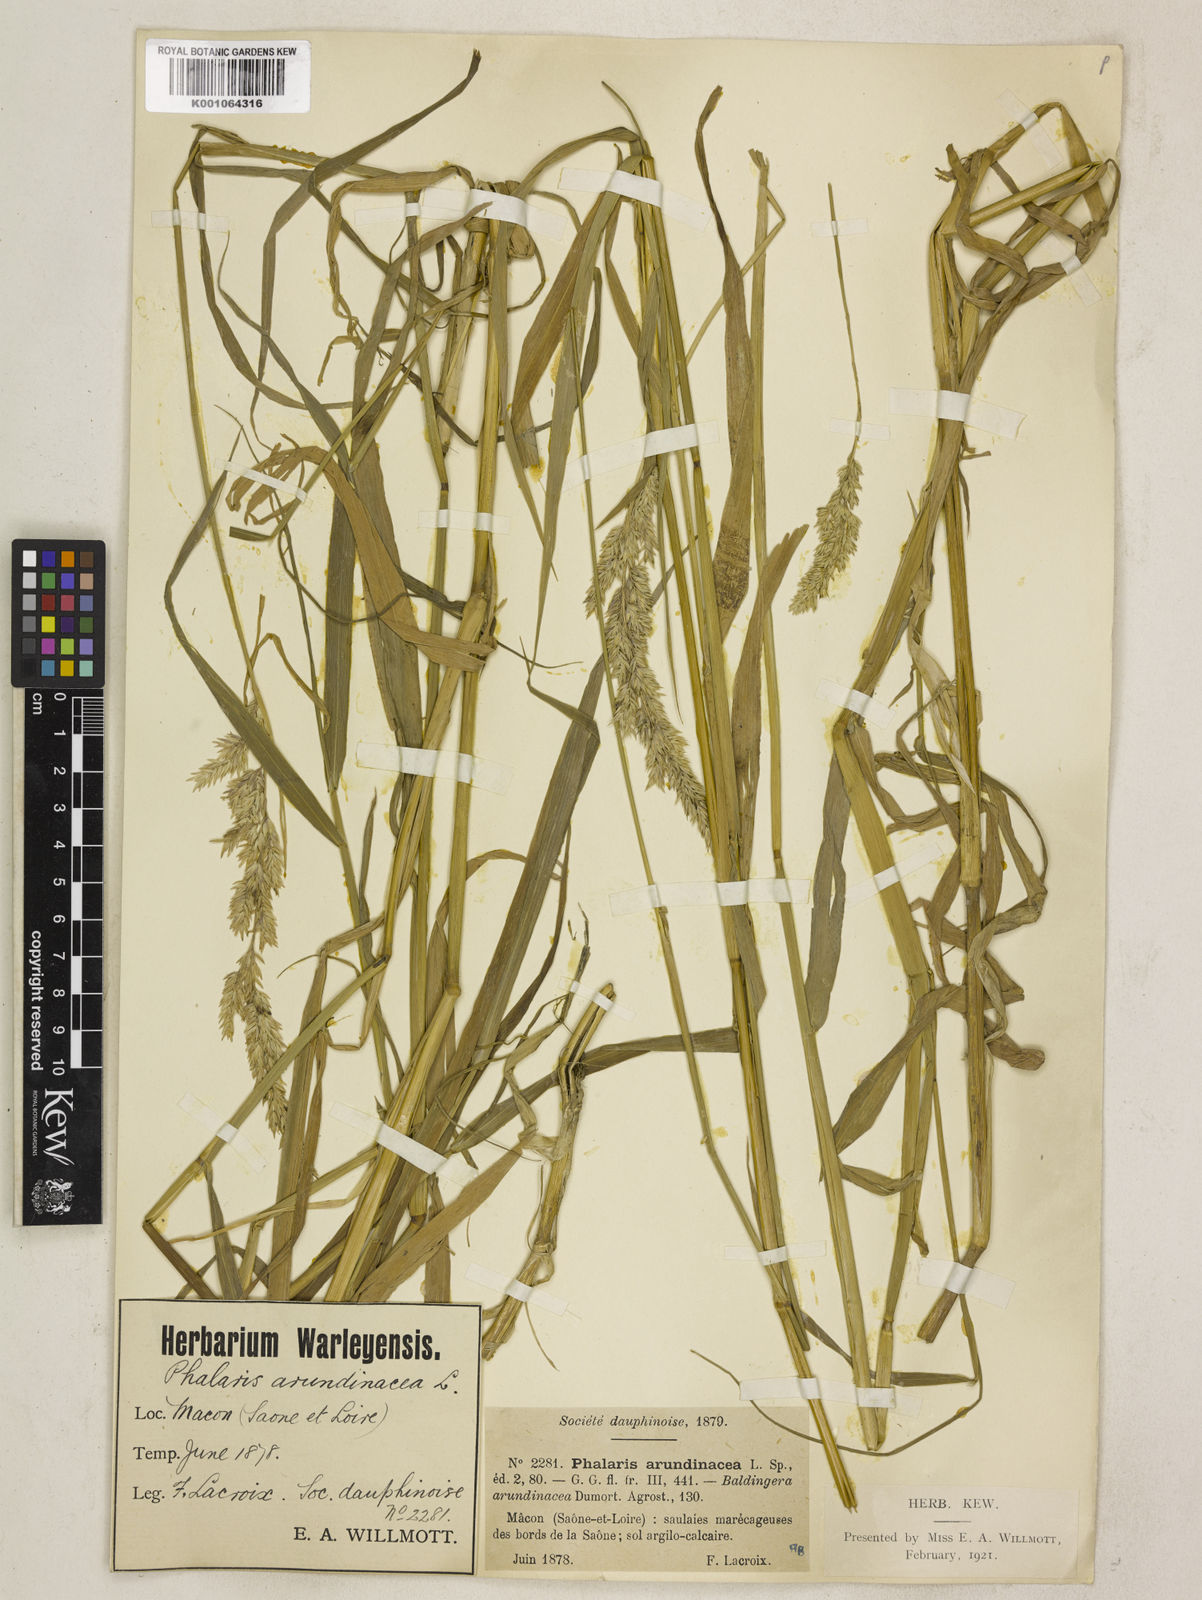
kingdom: Plantae
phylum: Tracheophyta
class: Liliopsida
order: Poales
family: Poaceae
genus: Phalaris
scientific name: Phalaris arundinacea
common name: Reed canary-grass
